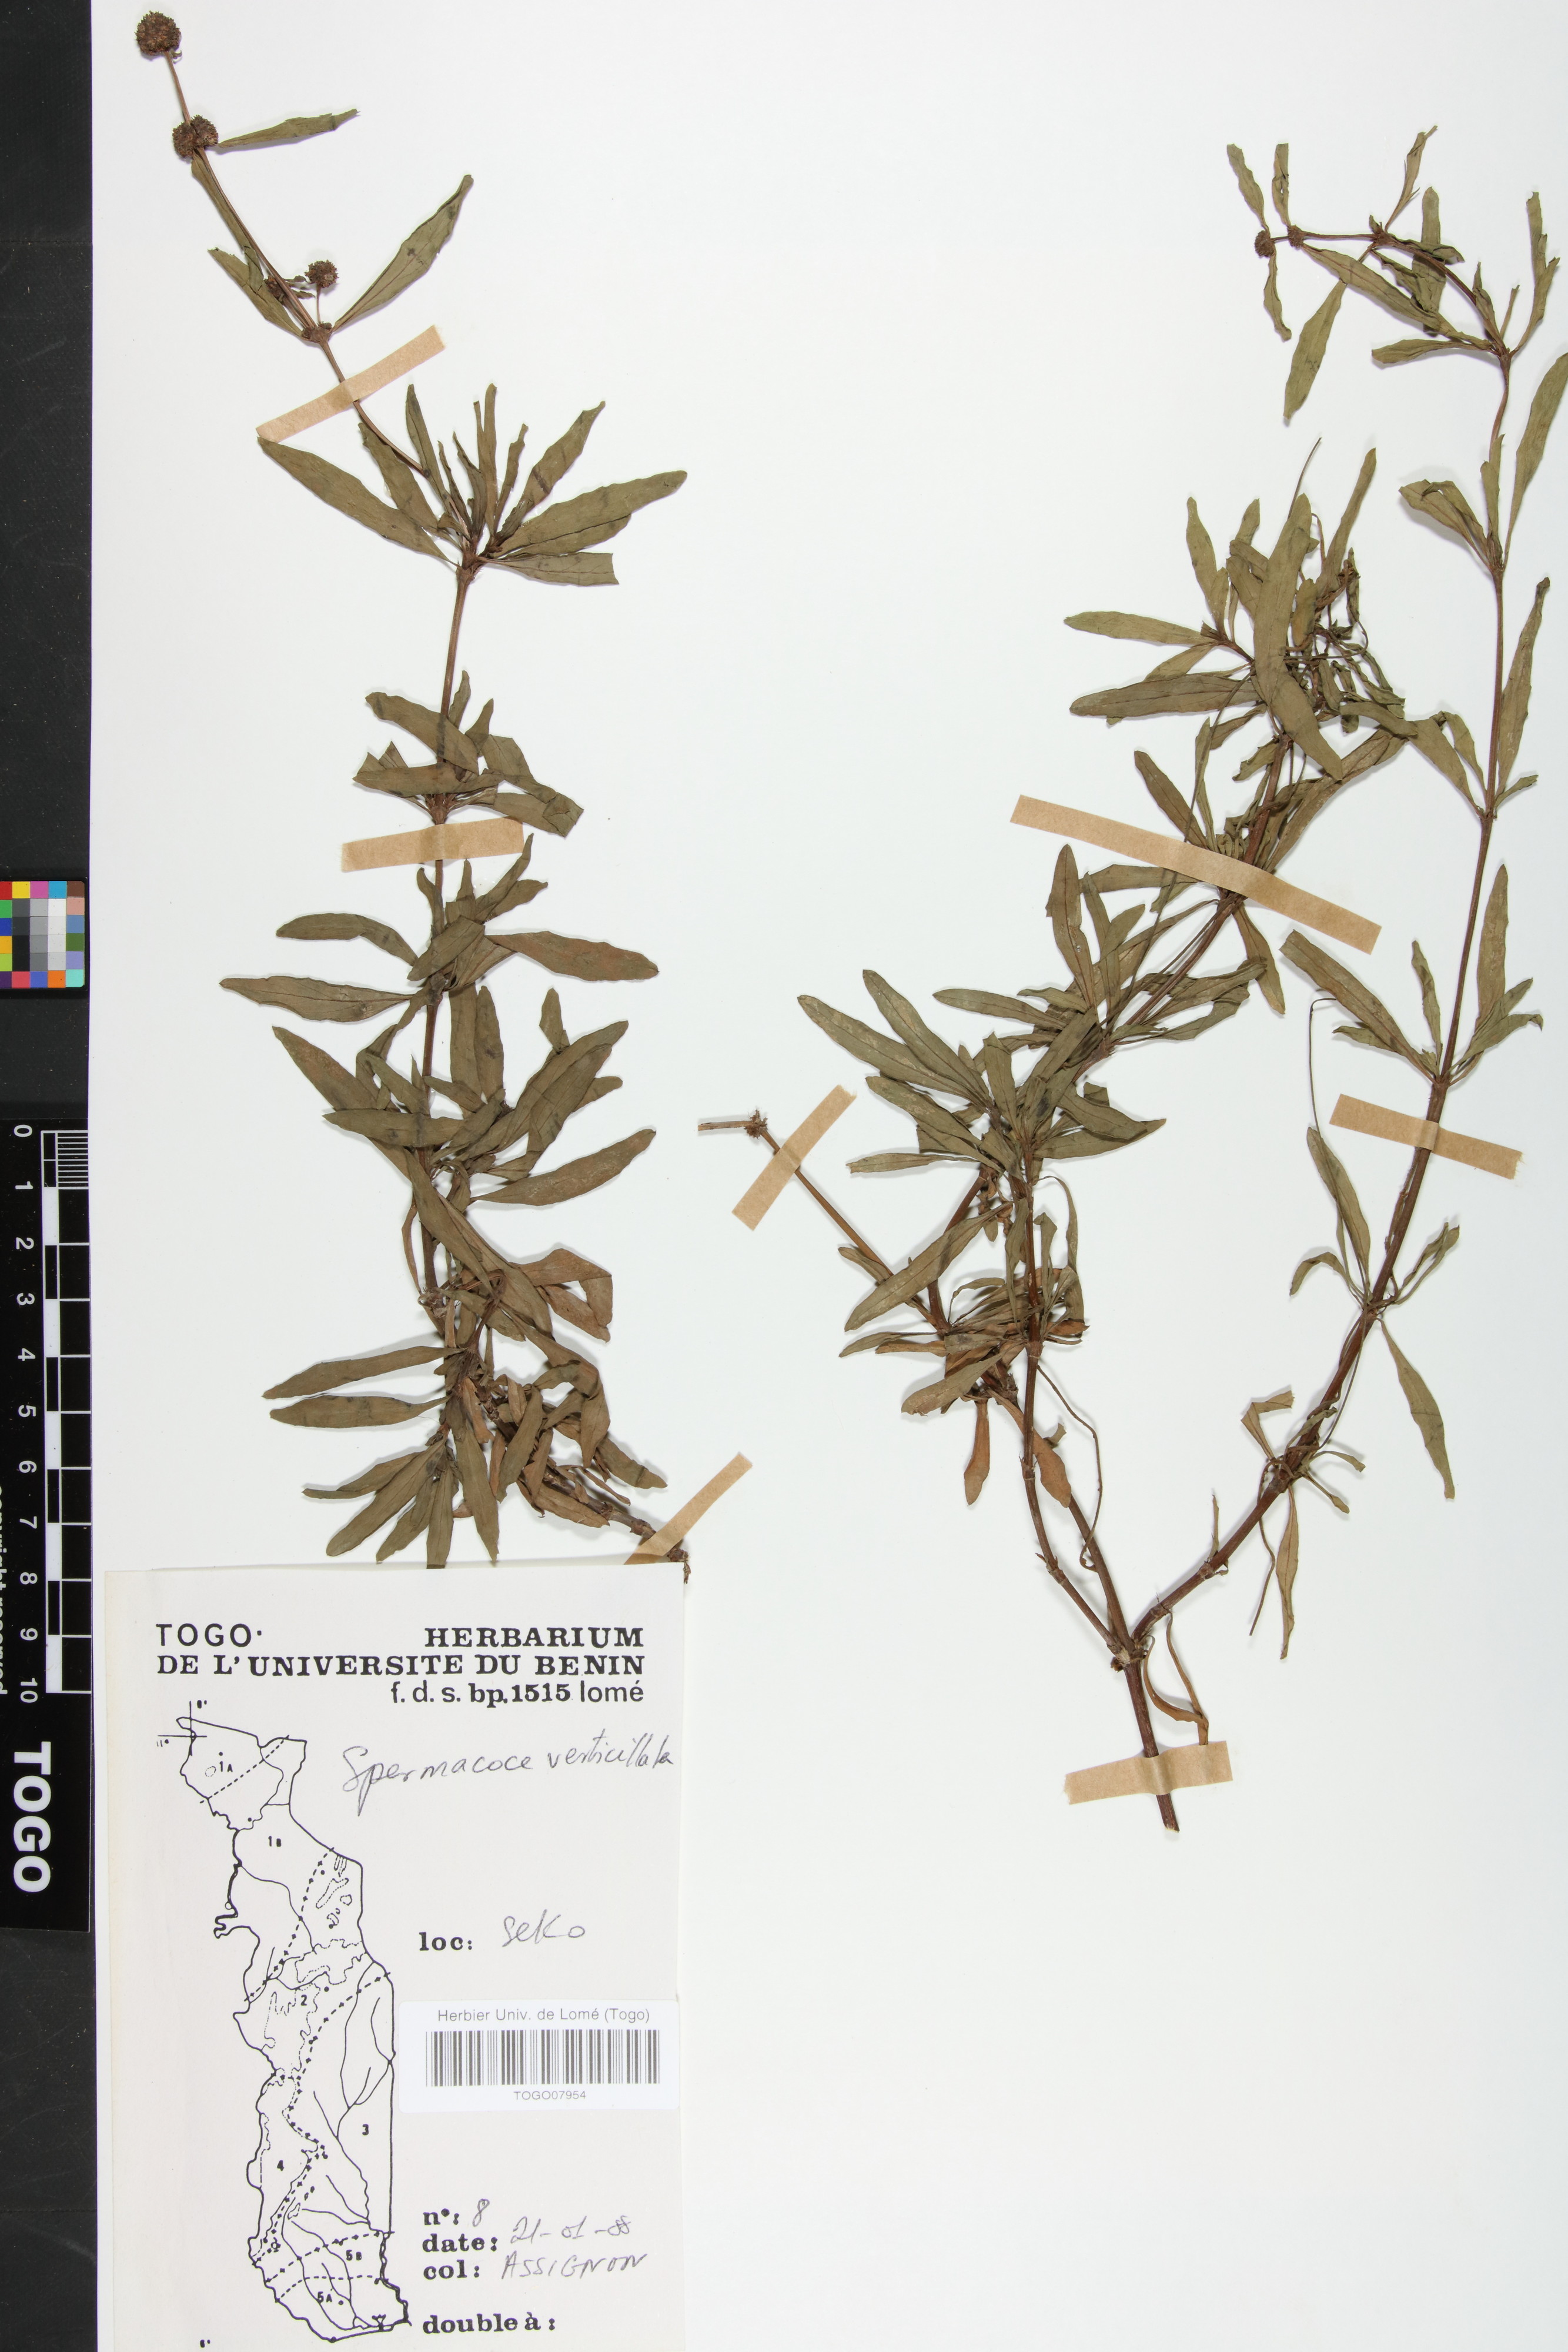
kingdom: Plantae
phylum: Tracheophyta
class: Magnoliopsida
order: Gentianales
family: Rubiaceae
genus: Spermacoce
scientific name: Spermacoce verticillata
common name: Shrubby false buttonweed
